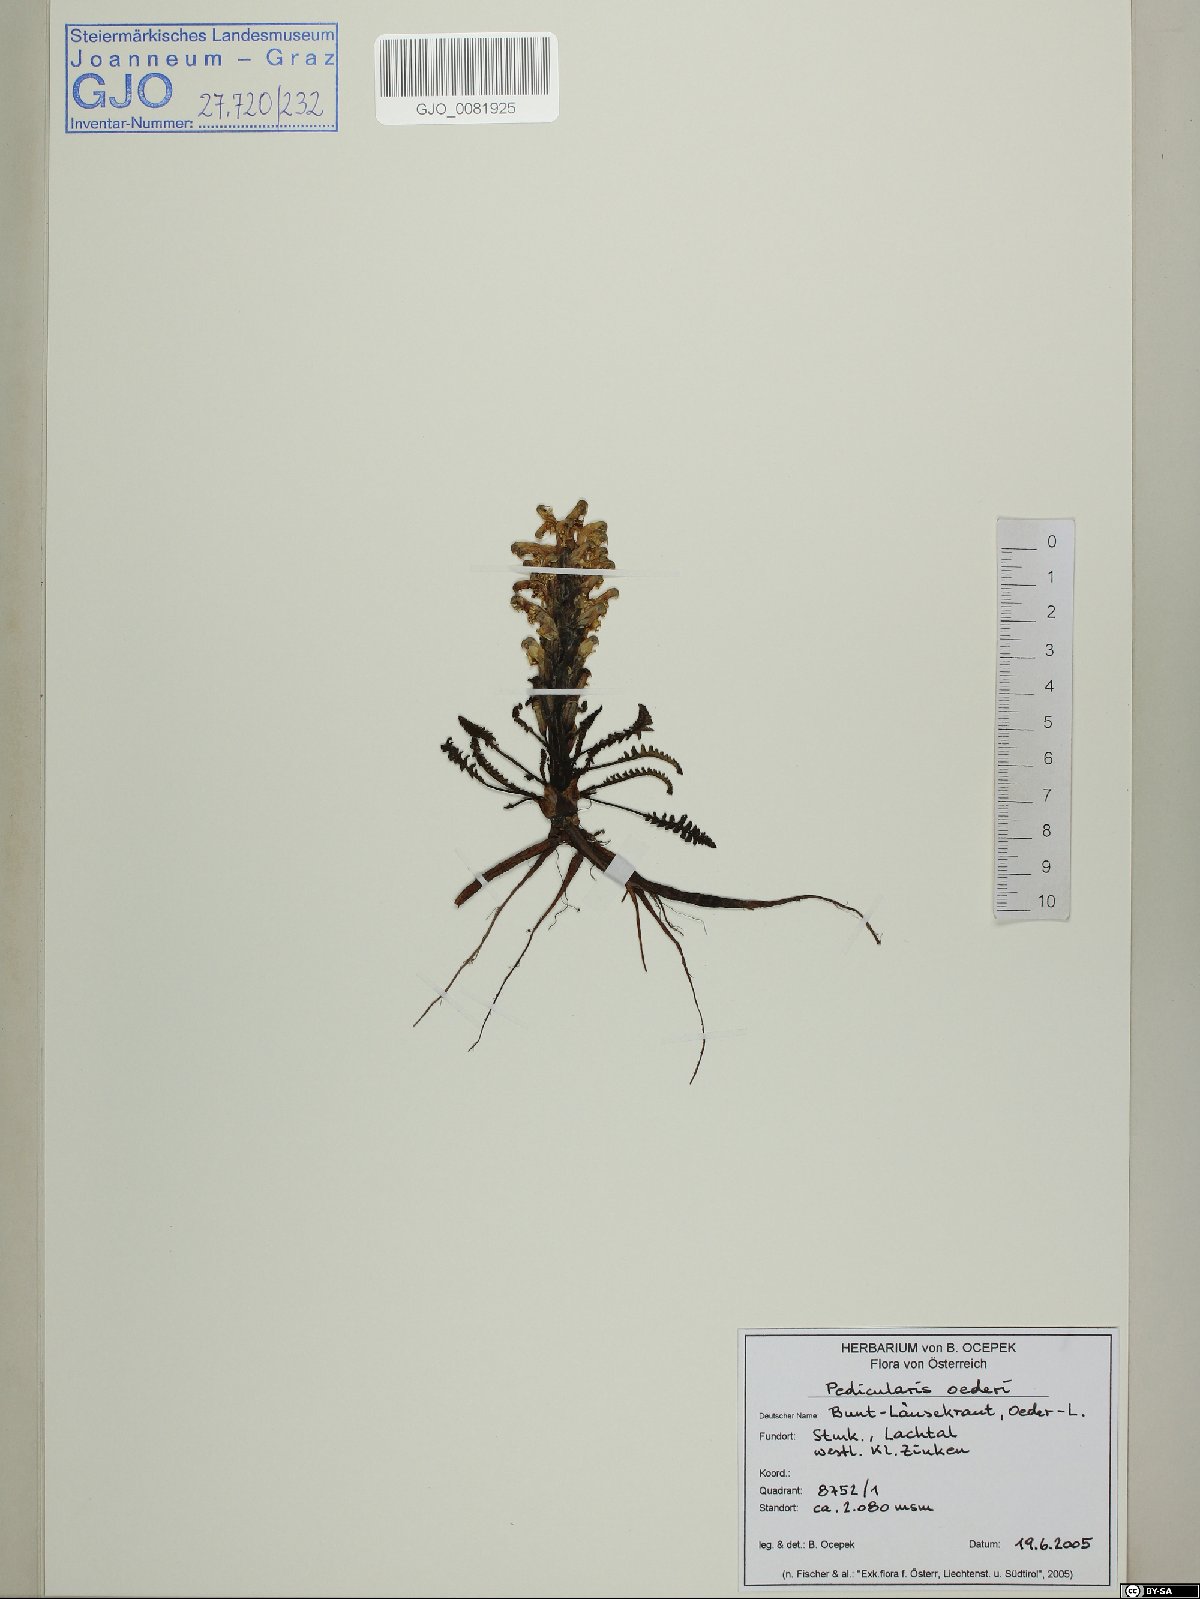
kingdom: Plantae
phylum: Tracheophyta
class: Magnoliopsida
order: Lamiales
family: Orobanchaceae
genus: Pedicularis
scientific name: Pedicularis oederi
